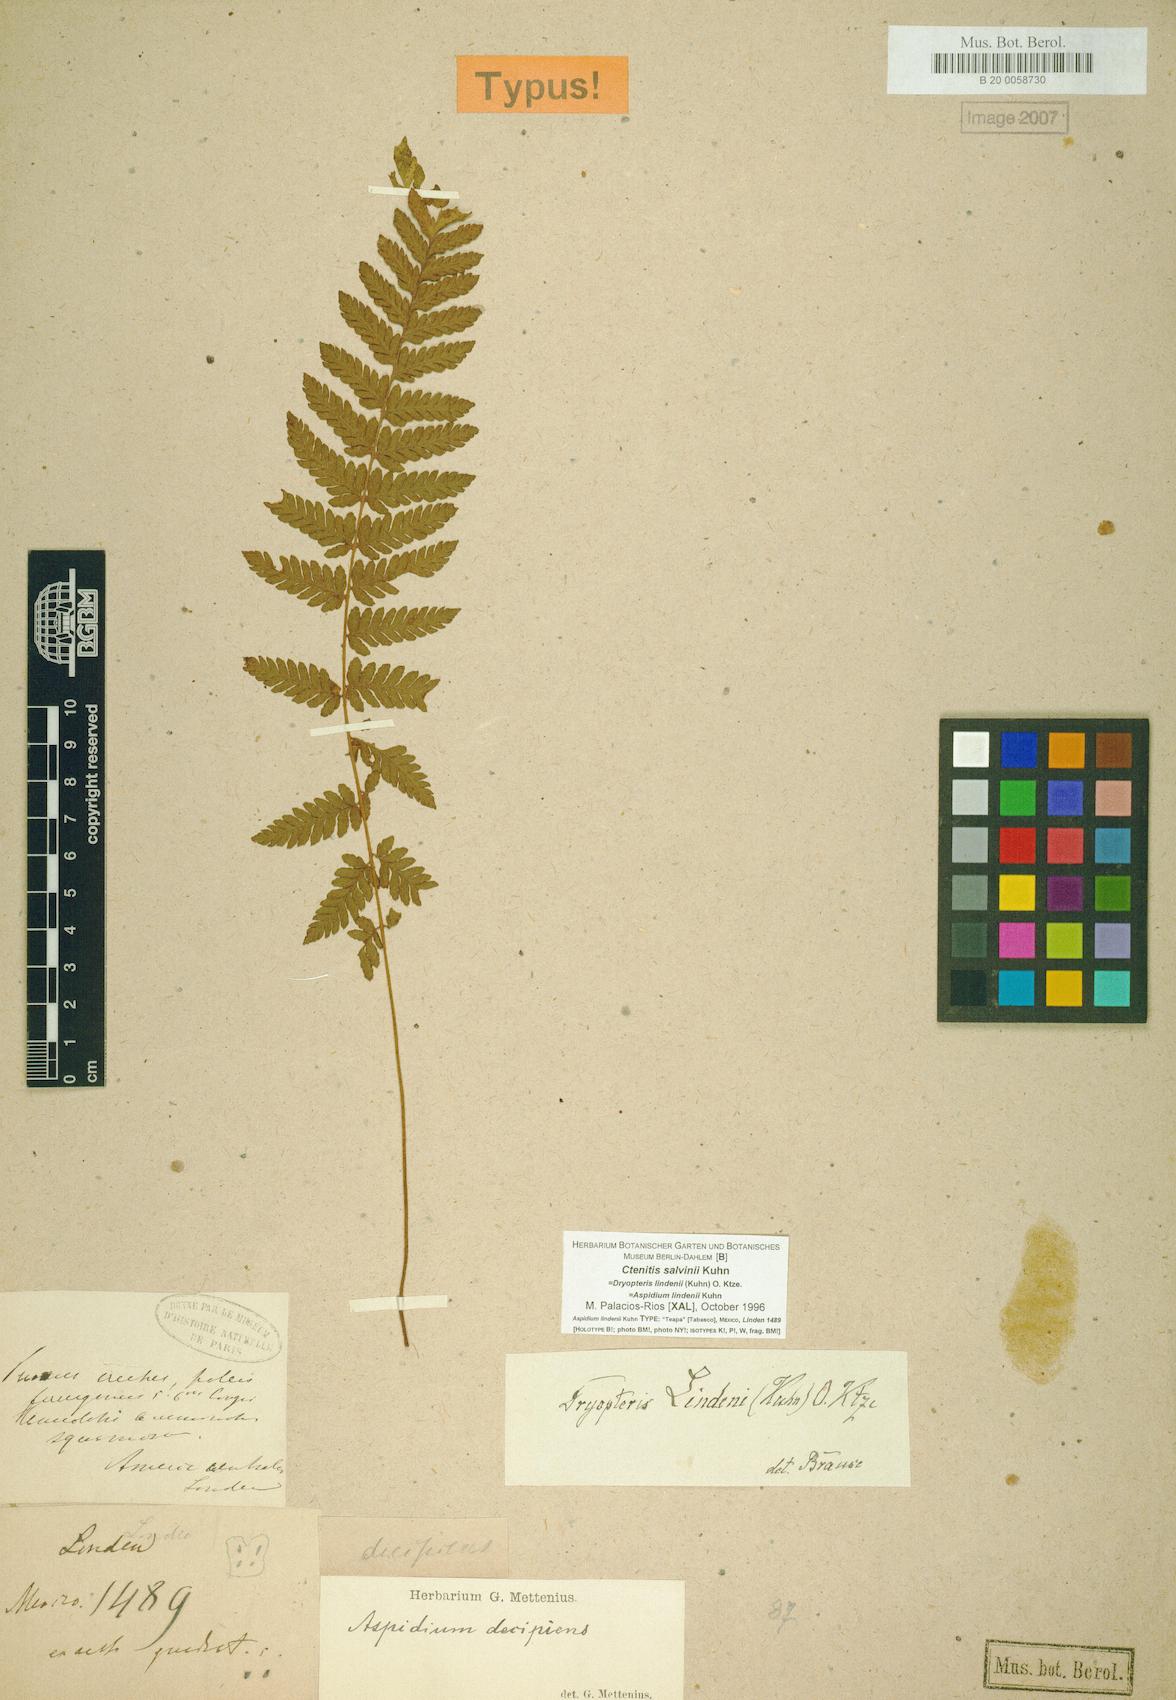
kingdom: Plantae
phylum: Tracheophyta
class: Polypodiopsida
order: Polypodiales
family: Dryopteridaceae
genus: Ctenitis
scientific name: Ctenitis salvinii
